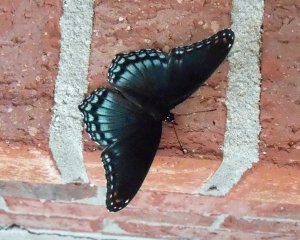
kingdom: Animalia
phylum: Arthropoda
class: Insecta
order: Lepidoptera
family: Nymphalidae
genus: Limenitis
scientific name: Limenitis astyanax
